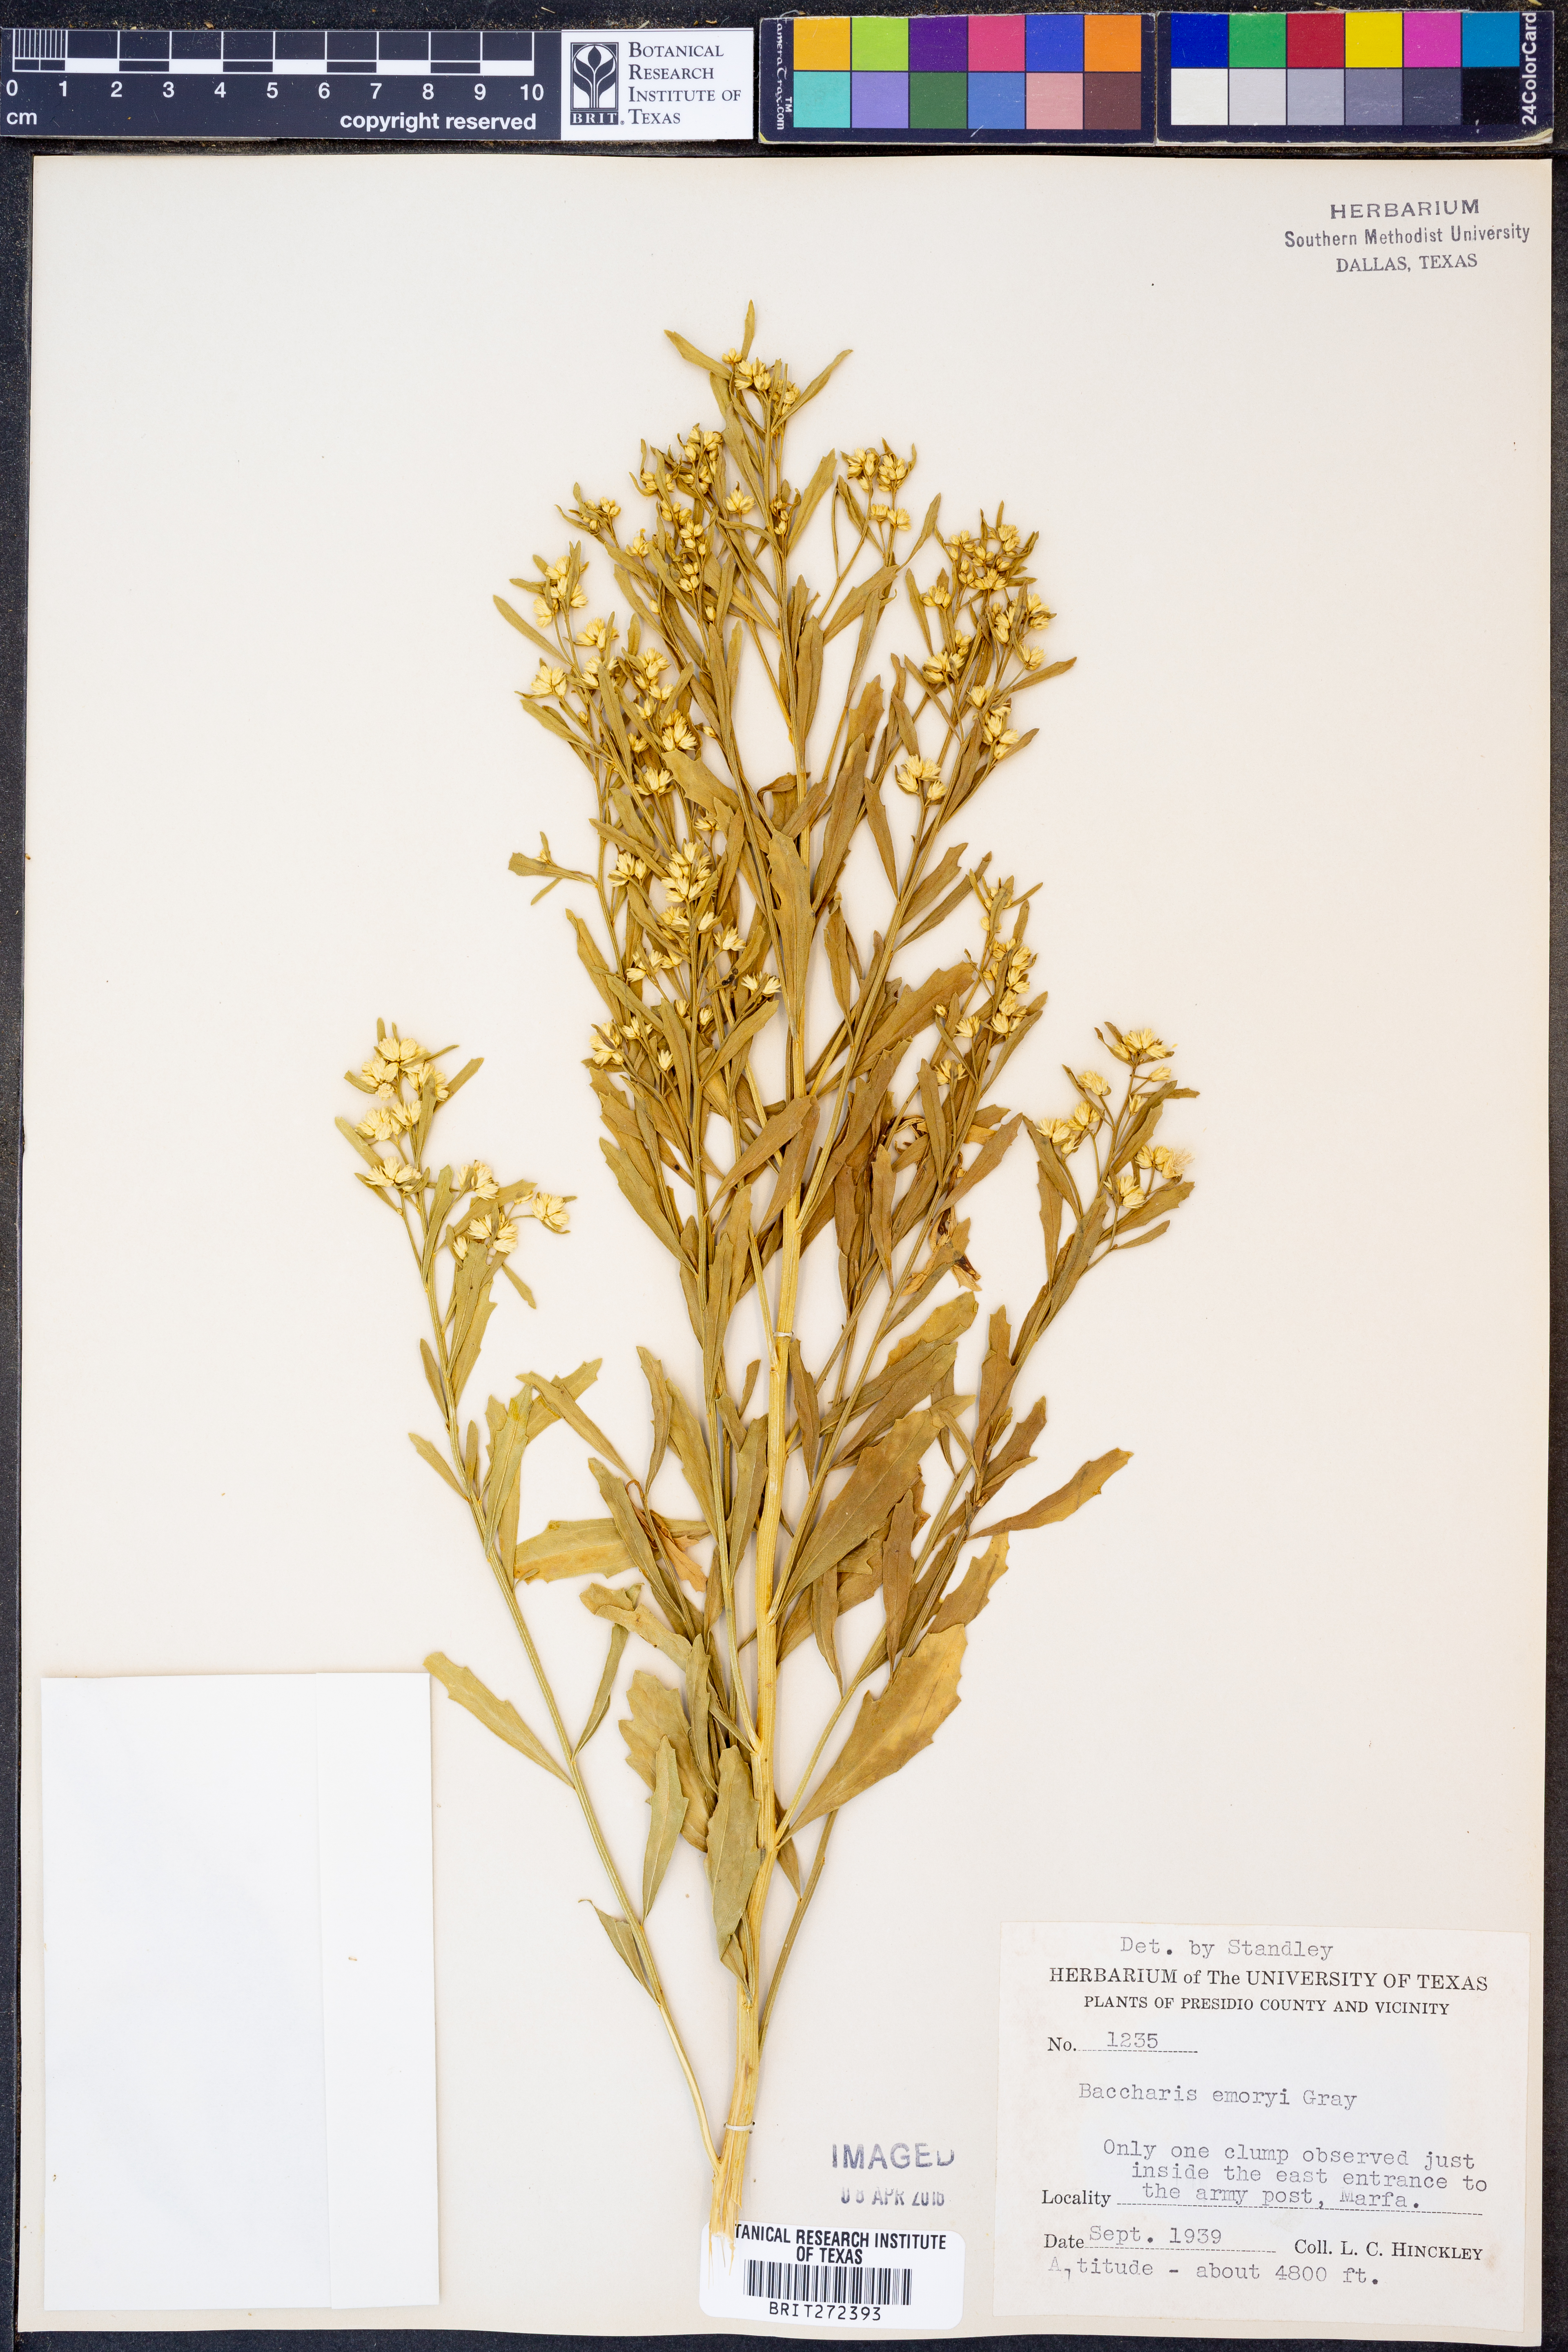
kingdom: Plantae
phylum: Tracheophyta
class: Magnoliopsida
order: Asterales
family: Asteraceae
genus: Baccharis
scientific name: Baccharis salicina
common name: Willow baccharis
